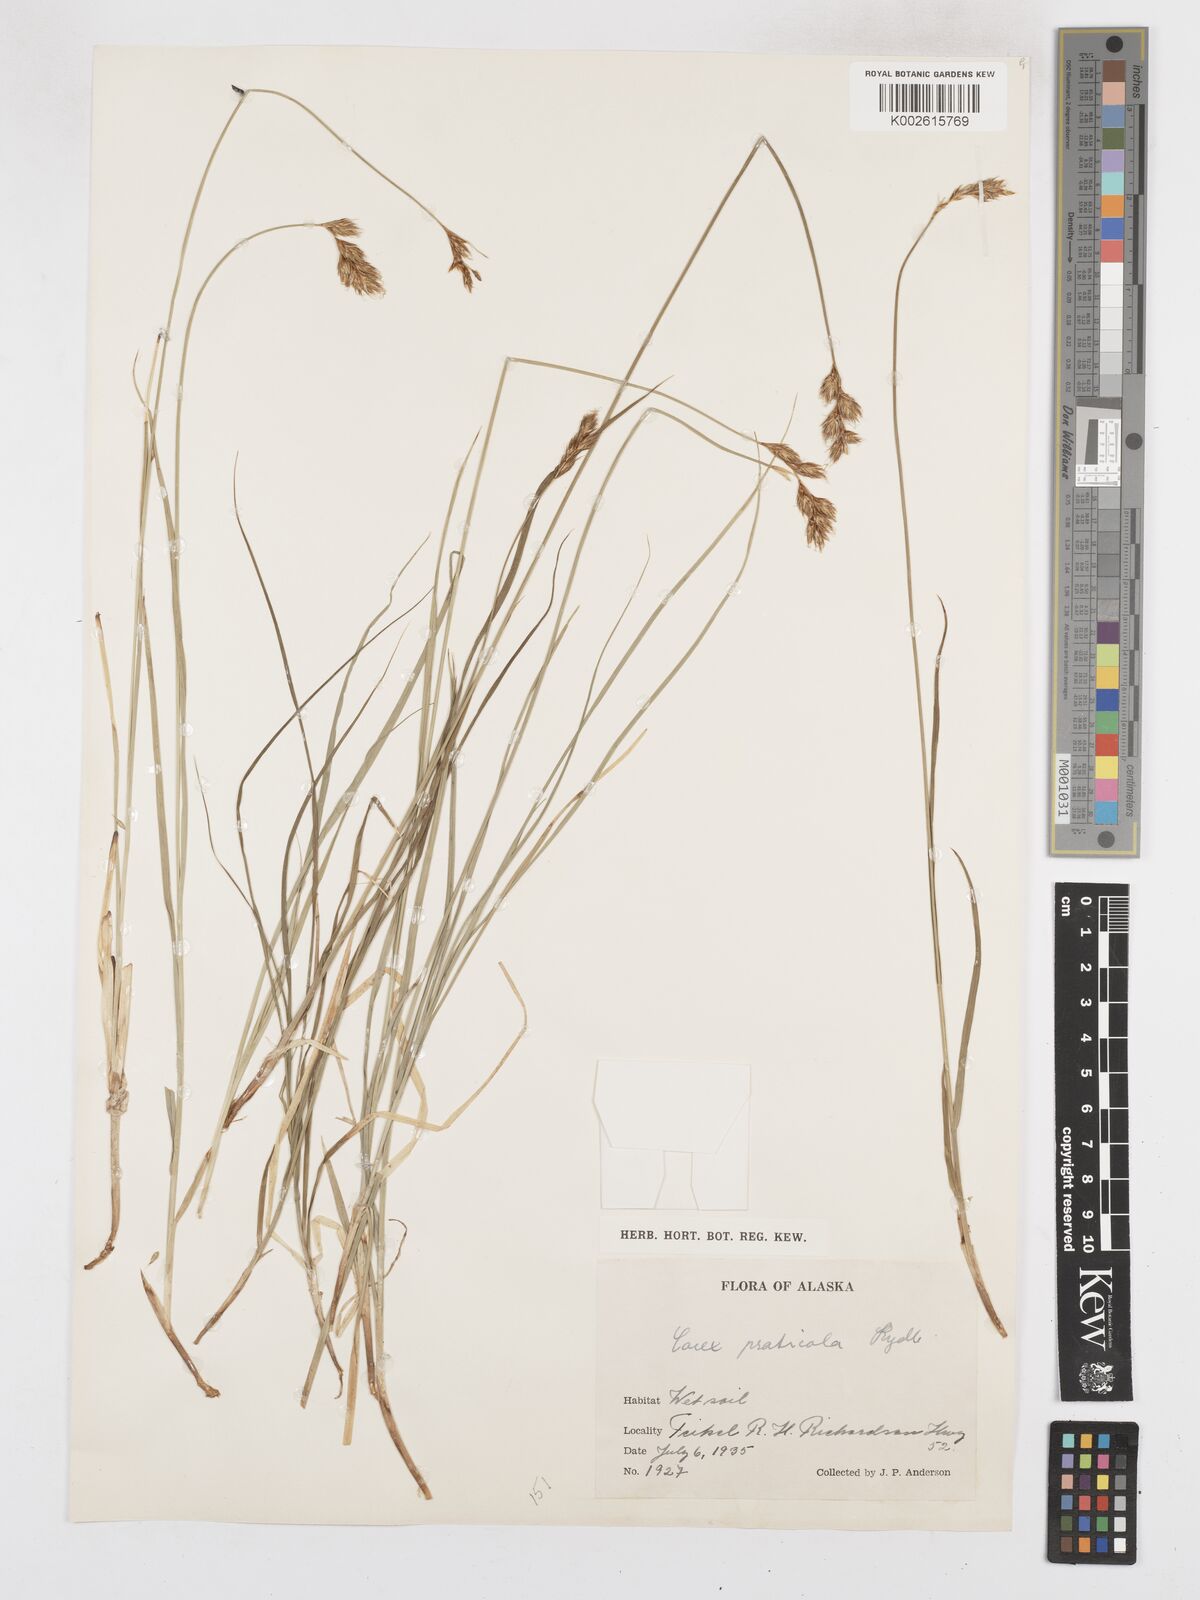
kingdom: Plantae
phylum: Tracheophyta
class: Liliopsida
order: Poales
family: Cyperaceae
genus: Carex
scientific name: Carex praticola
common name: Large-fruited oval sedge
